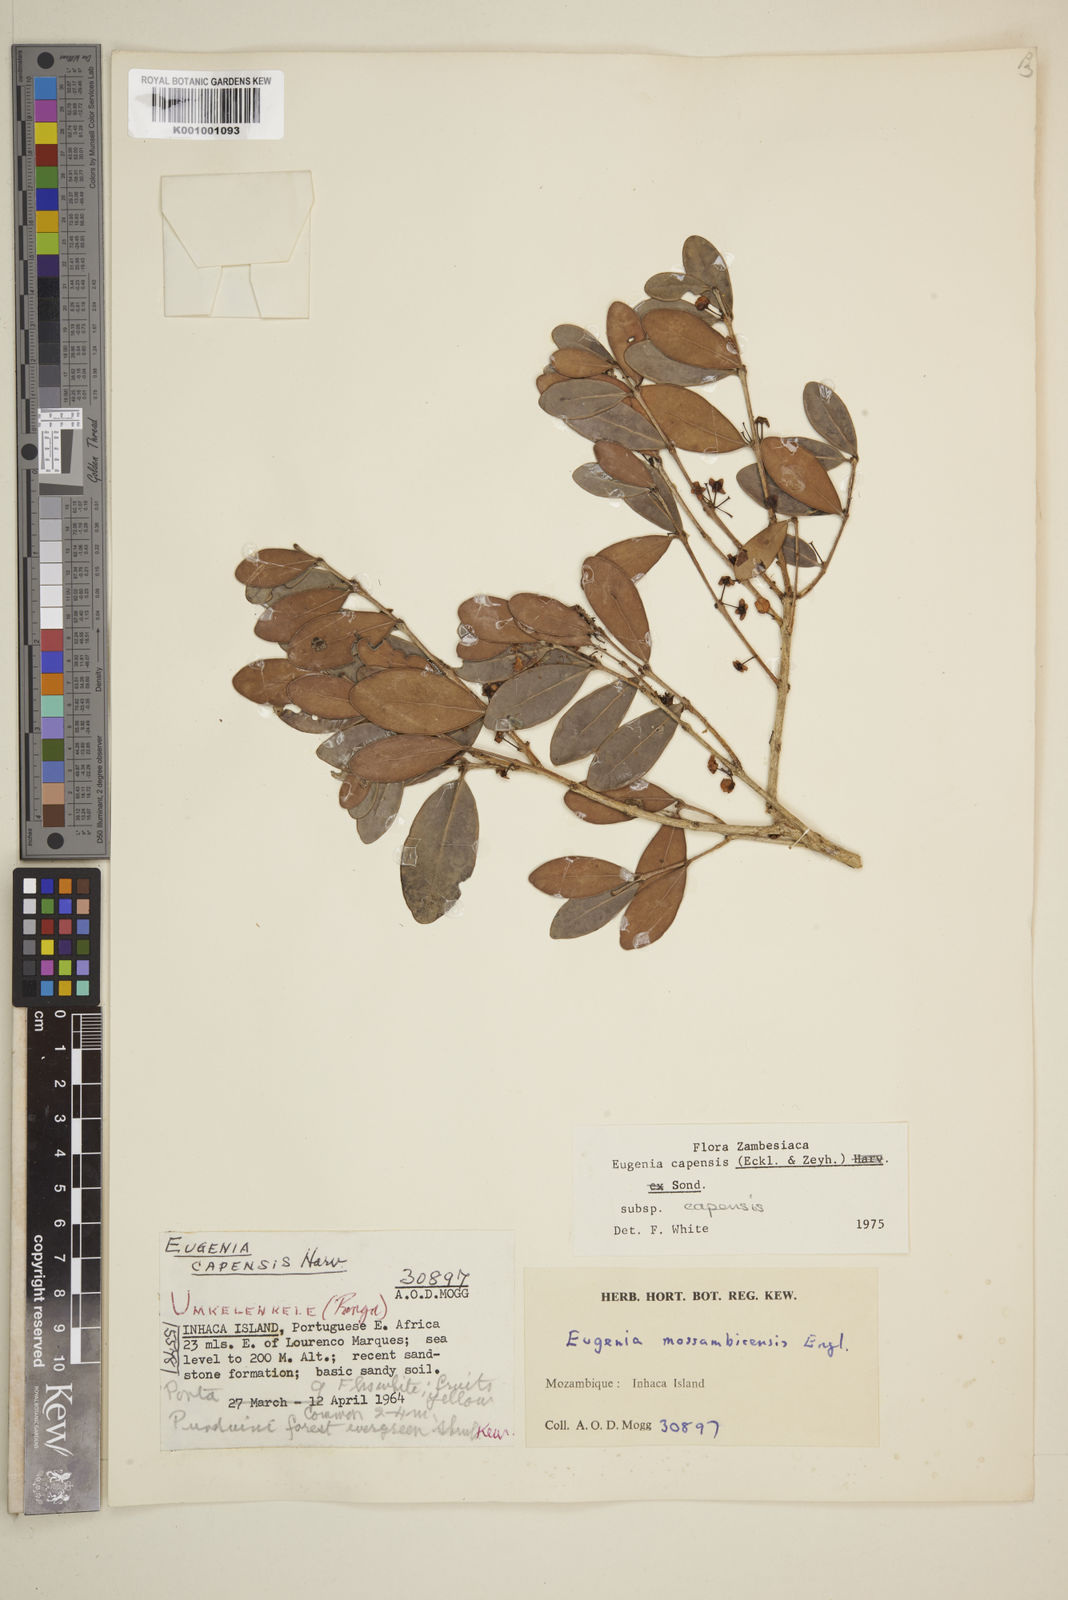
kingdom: Plantae
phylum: Tracheophyta
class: Magnoliopsida
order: Myrtales
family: Myrtaceae
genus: Eugenia
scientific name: Eugenia capensis
